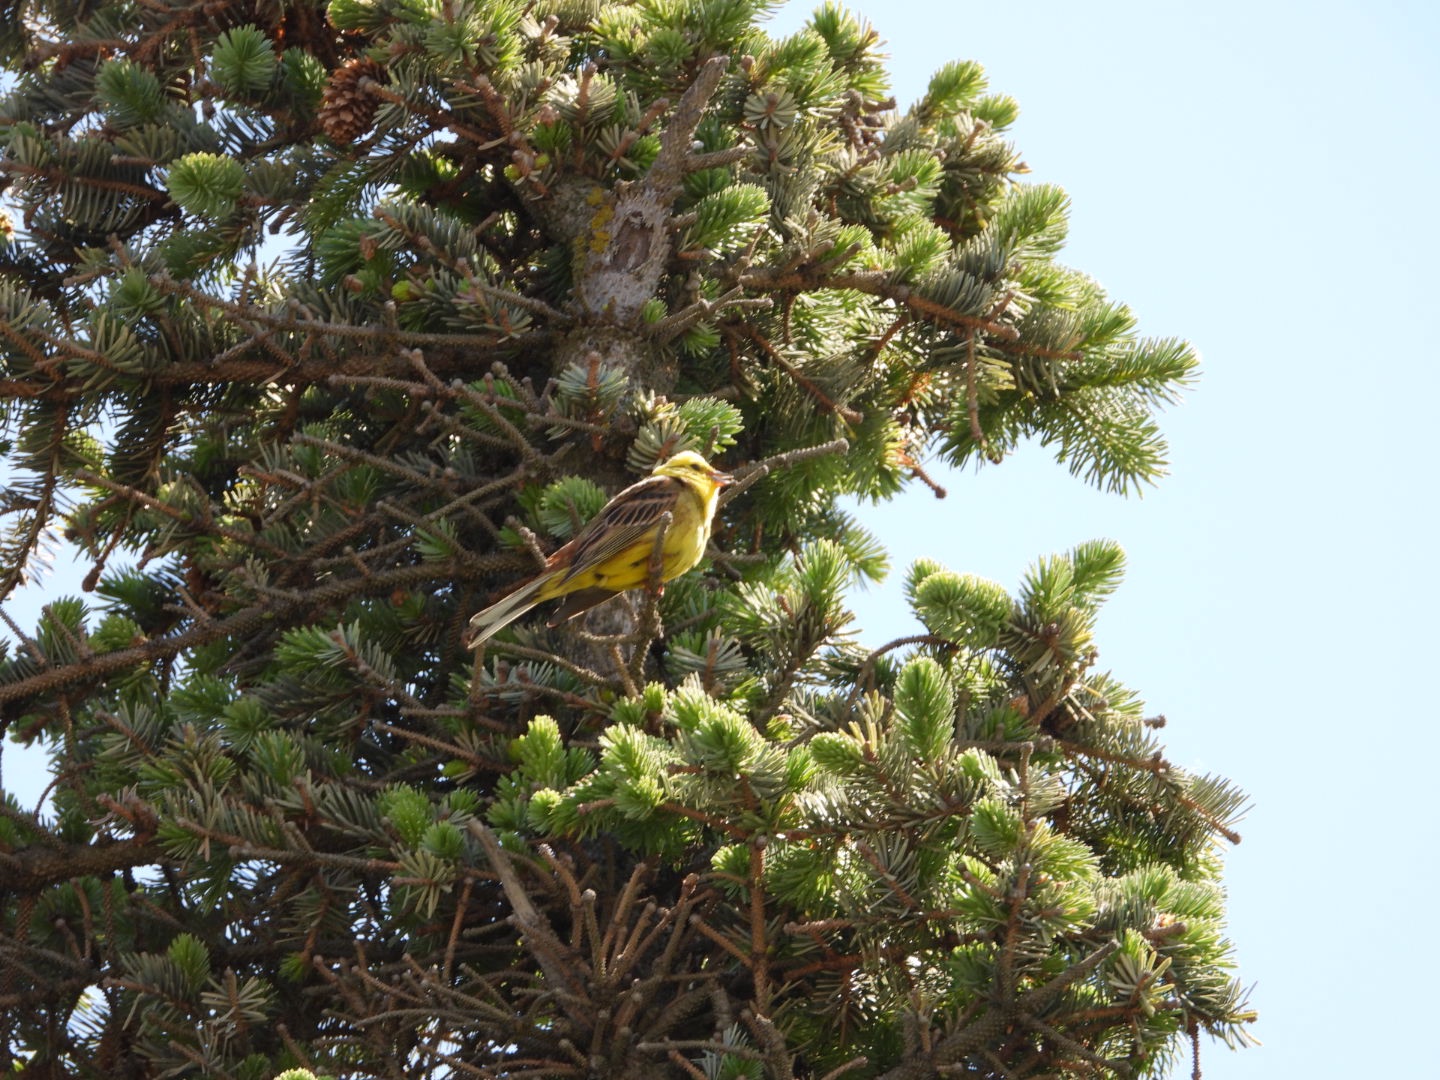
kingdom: Animalia
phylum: Chordata
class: Aves
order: Passeriformes
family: Emberizidae
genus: Emberiza
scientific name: Emberiza citrinella
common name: Gulspurv
